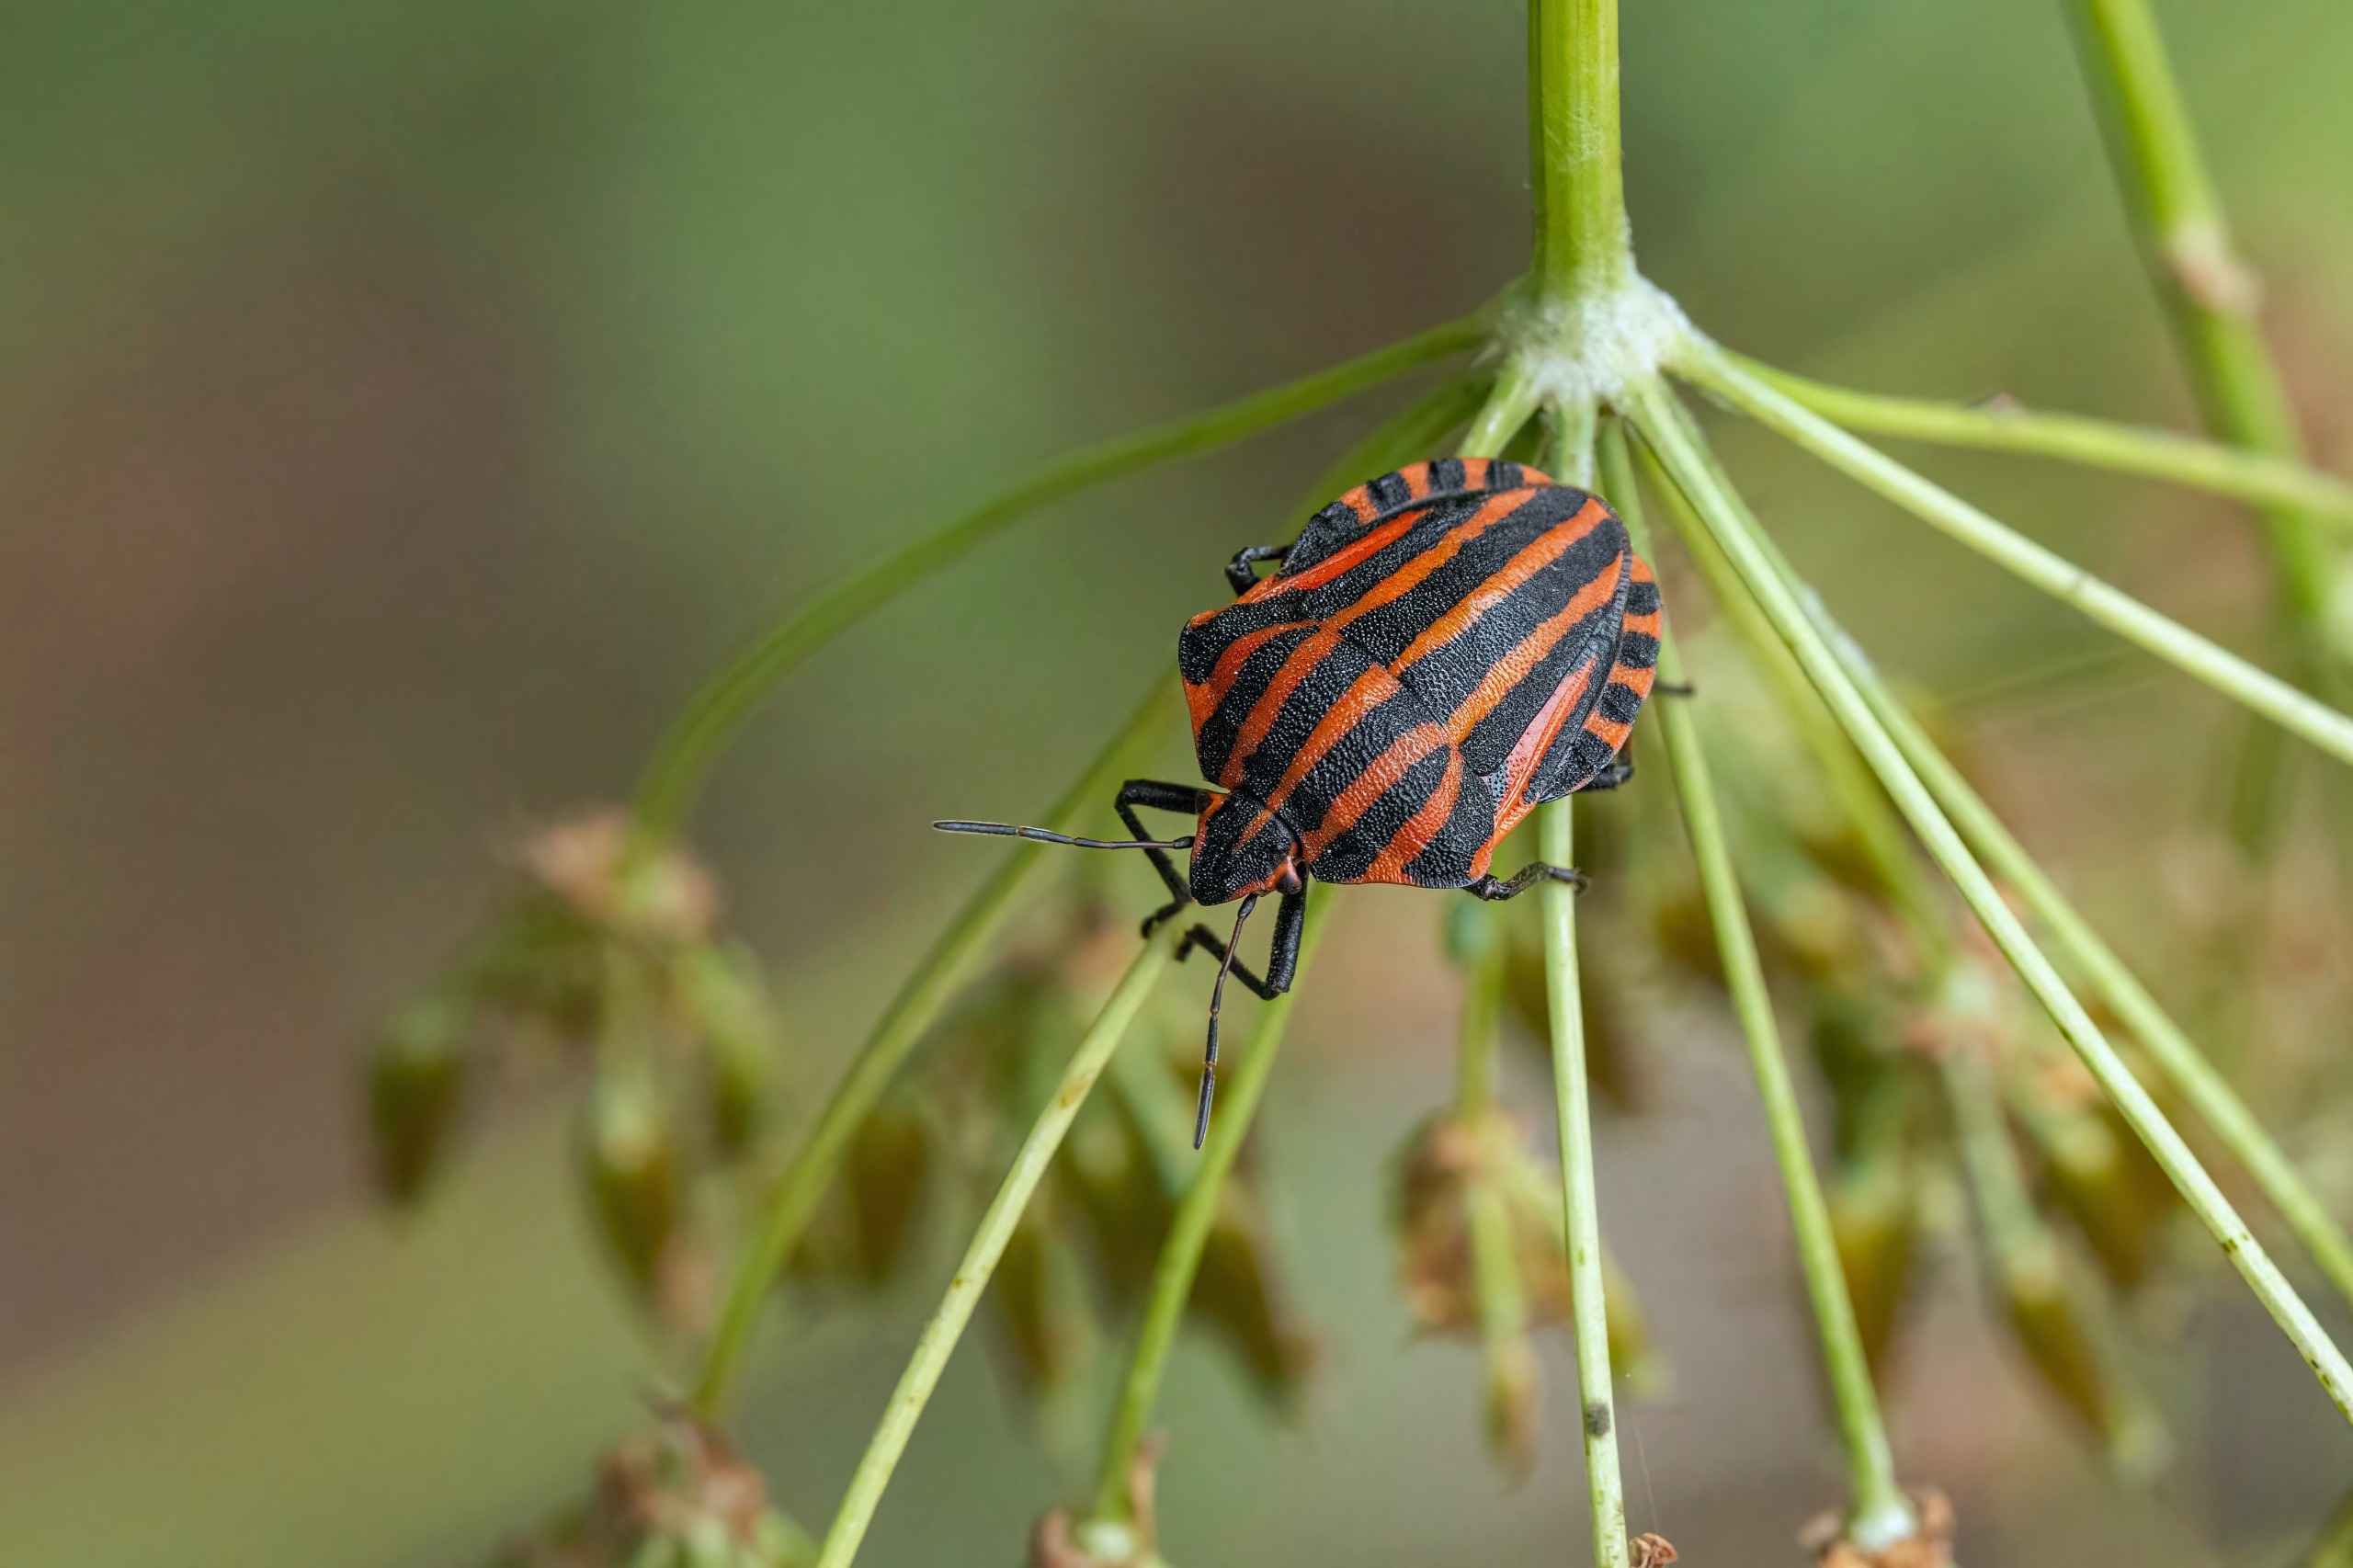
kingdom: Animalia
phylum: Arthropoda
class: Insecta
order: Hemiptera
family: Pentatomidae
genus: Graphosoma
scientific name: Graphosoma italicum
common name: Stribetæge
